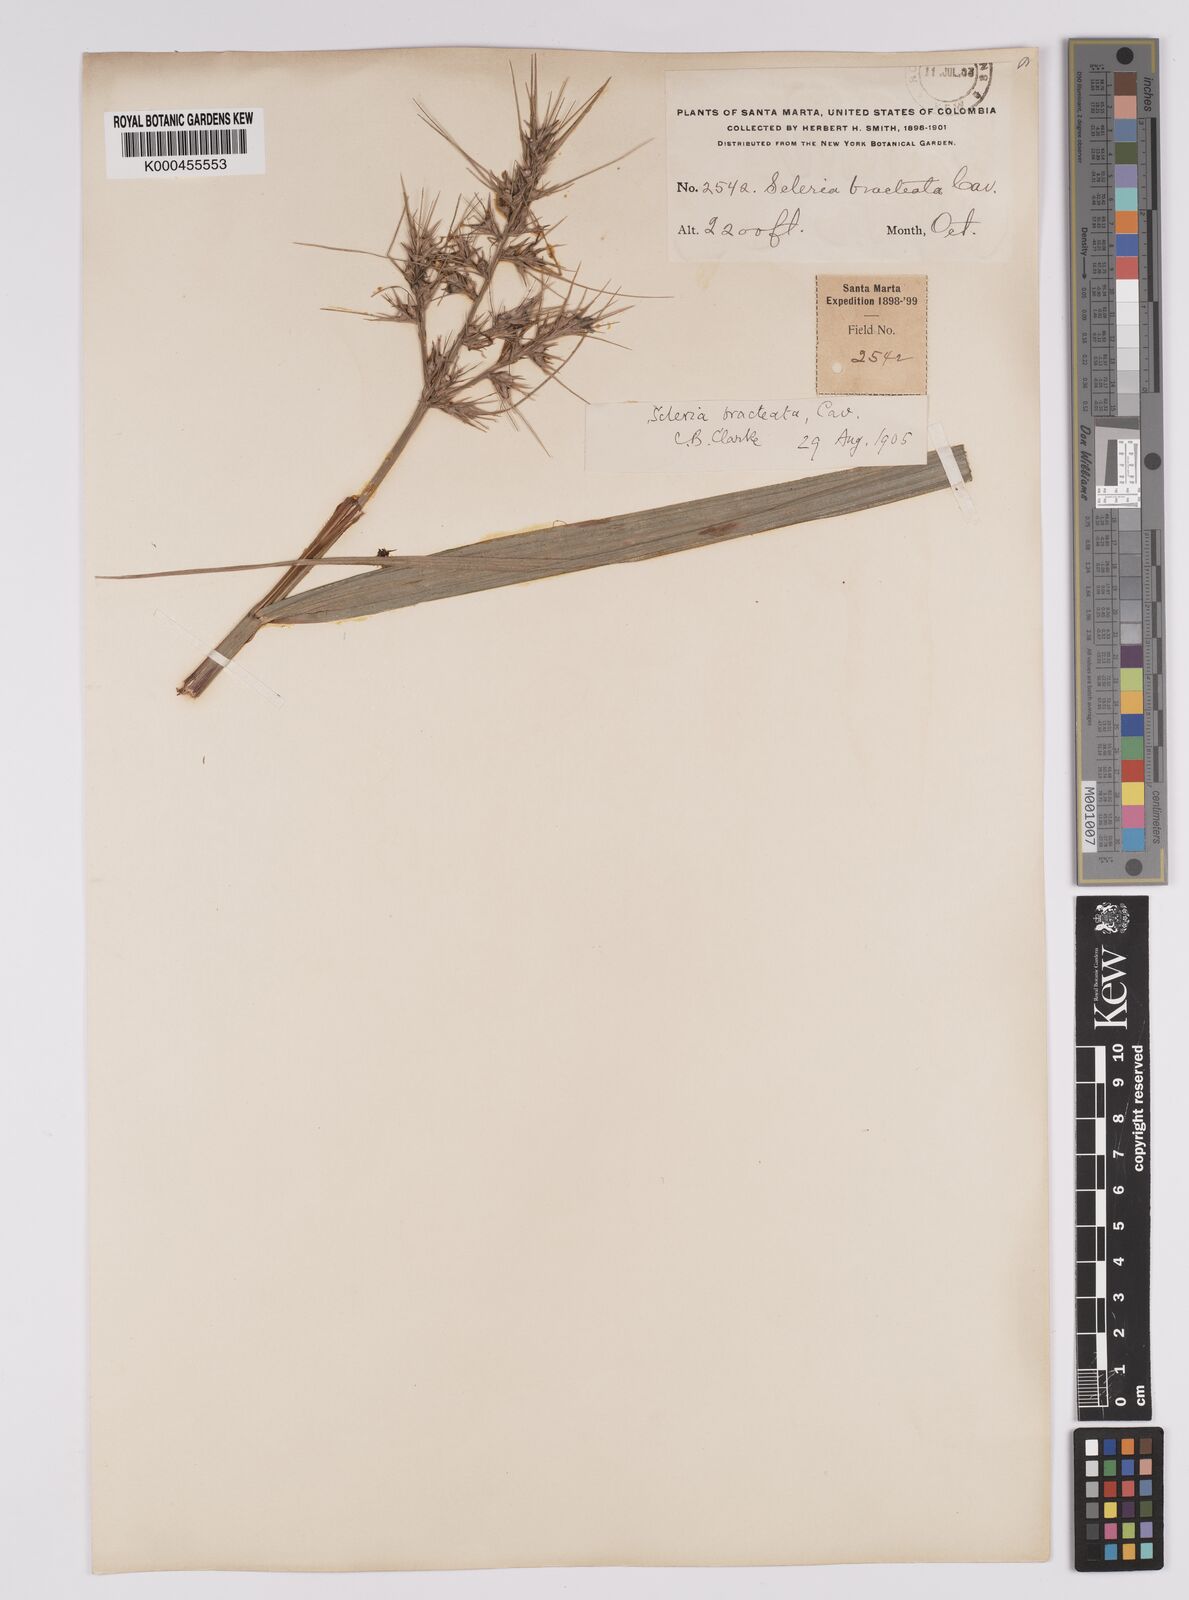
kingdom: Plantae
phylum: Tracheophyta
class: Liliopsida
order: Poales
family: Cyperaceae
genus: Scleria
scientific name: Scleria bracteata
